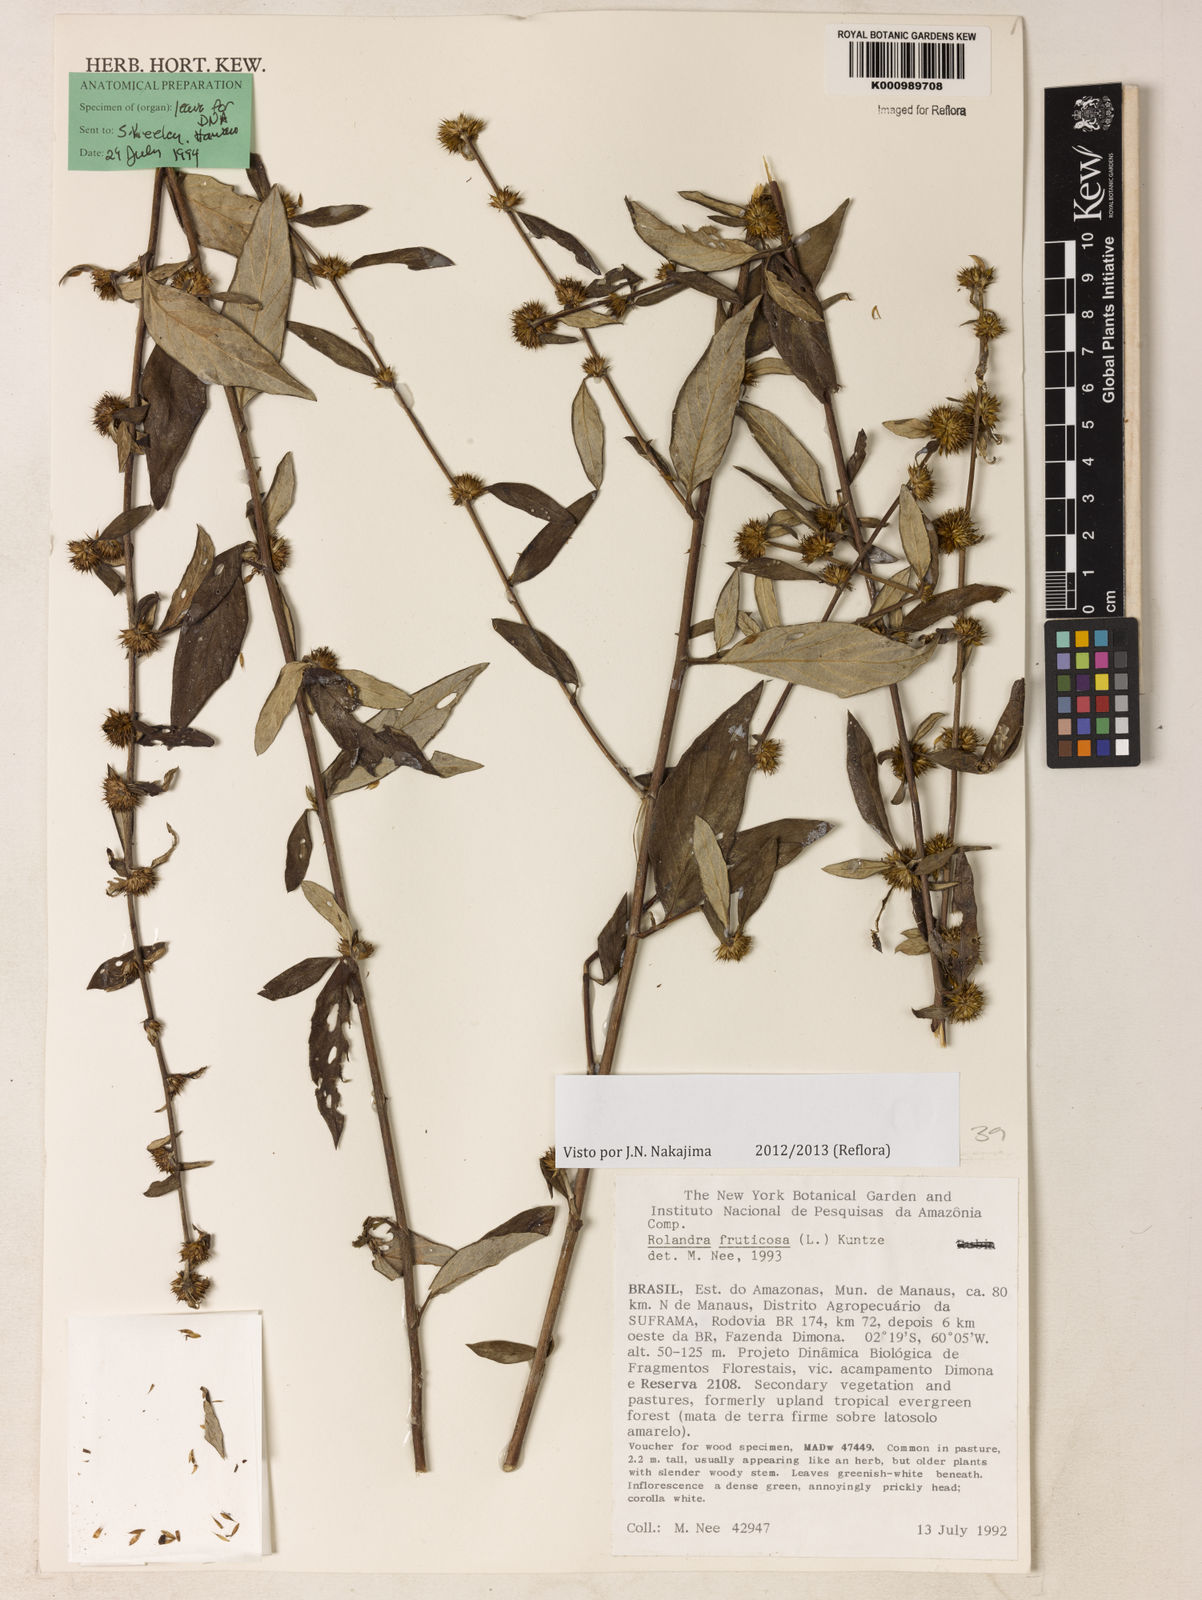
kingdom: Plantae
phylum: Tracheophyta
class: Magnoliopsida
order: Asterales
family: Asteraceae
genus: Rolandra
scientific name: Rolandra fruticosa
